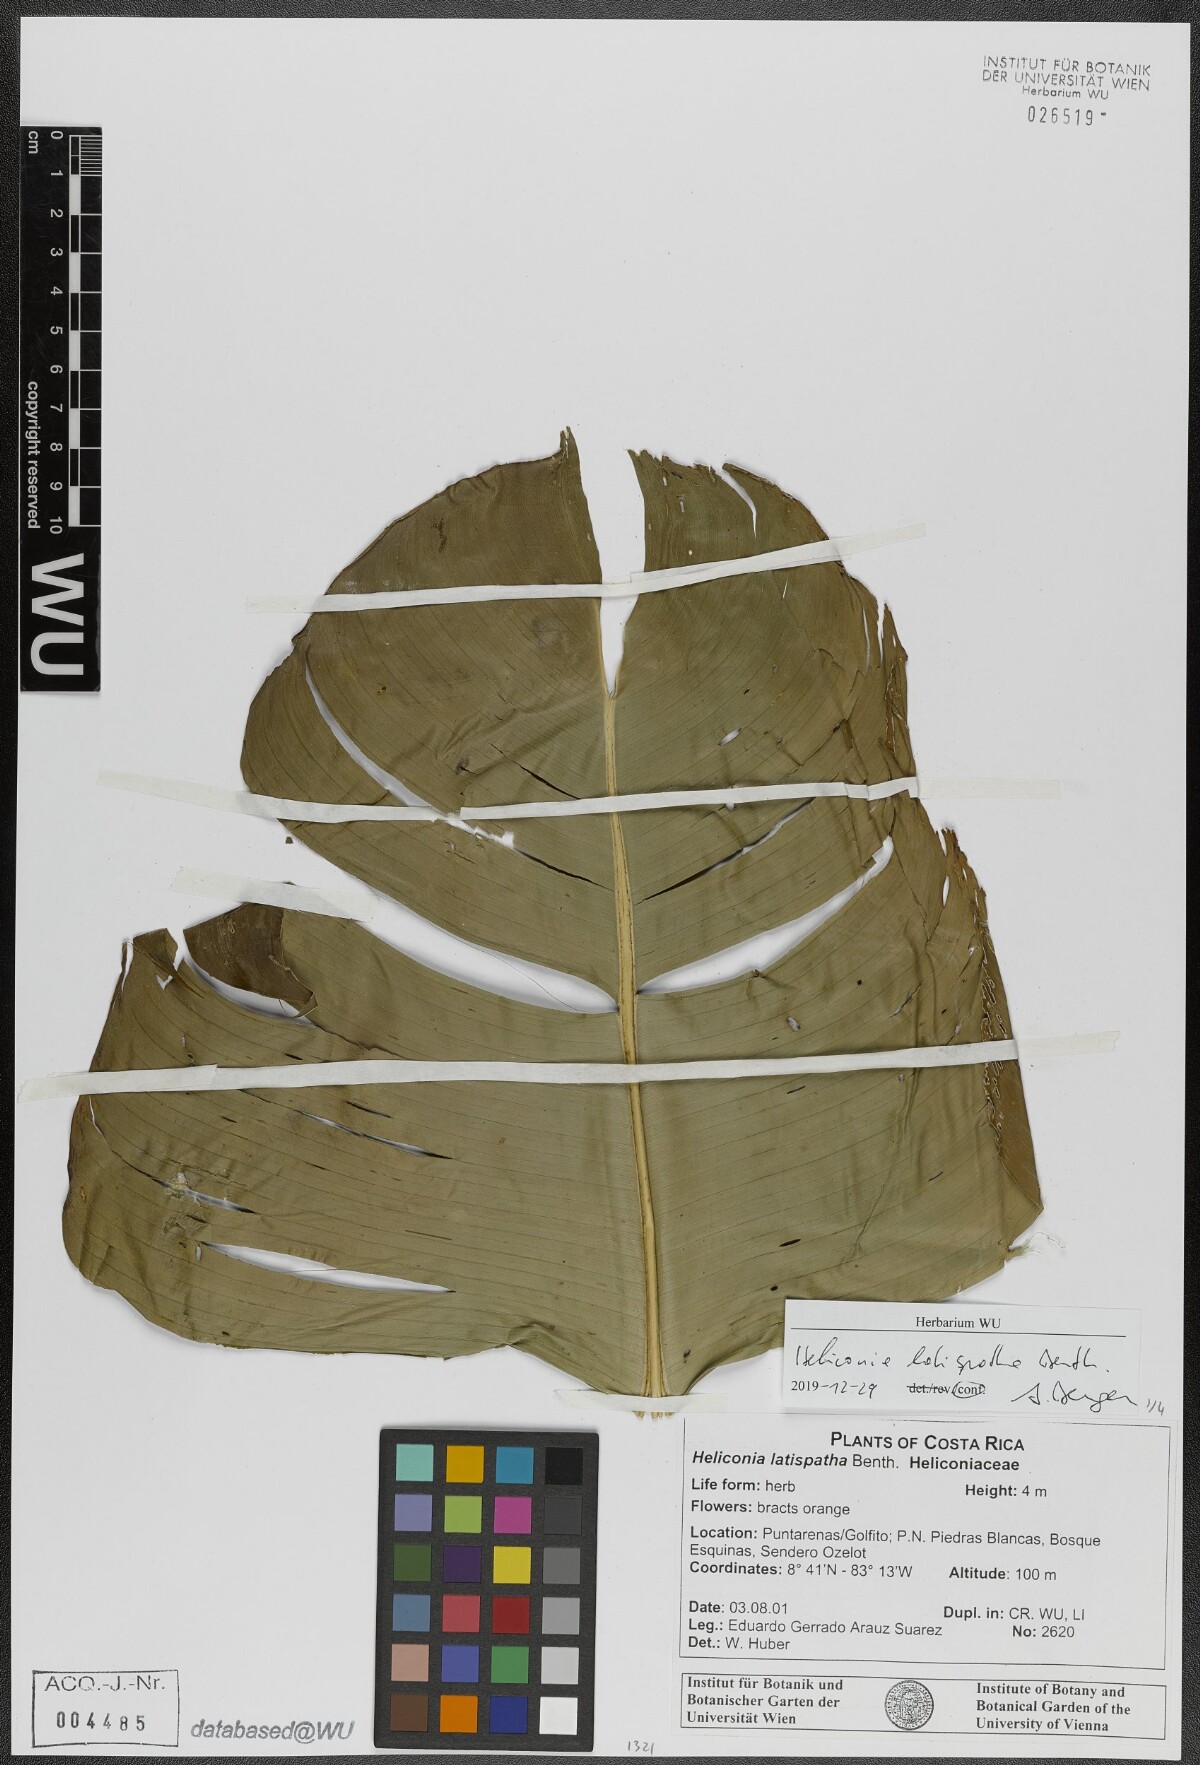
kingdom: Plantae
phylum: Tracheophyta
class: Liliopsida
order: Zingiberales
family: Heliconiaceae
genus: Heliconia
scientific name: Heliconia latispatha
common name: Expanded lobsterclaw
